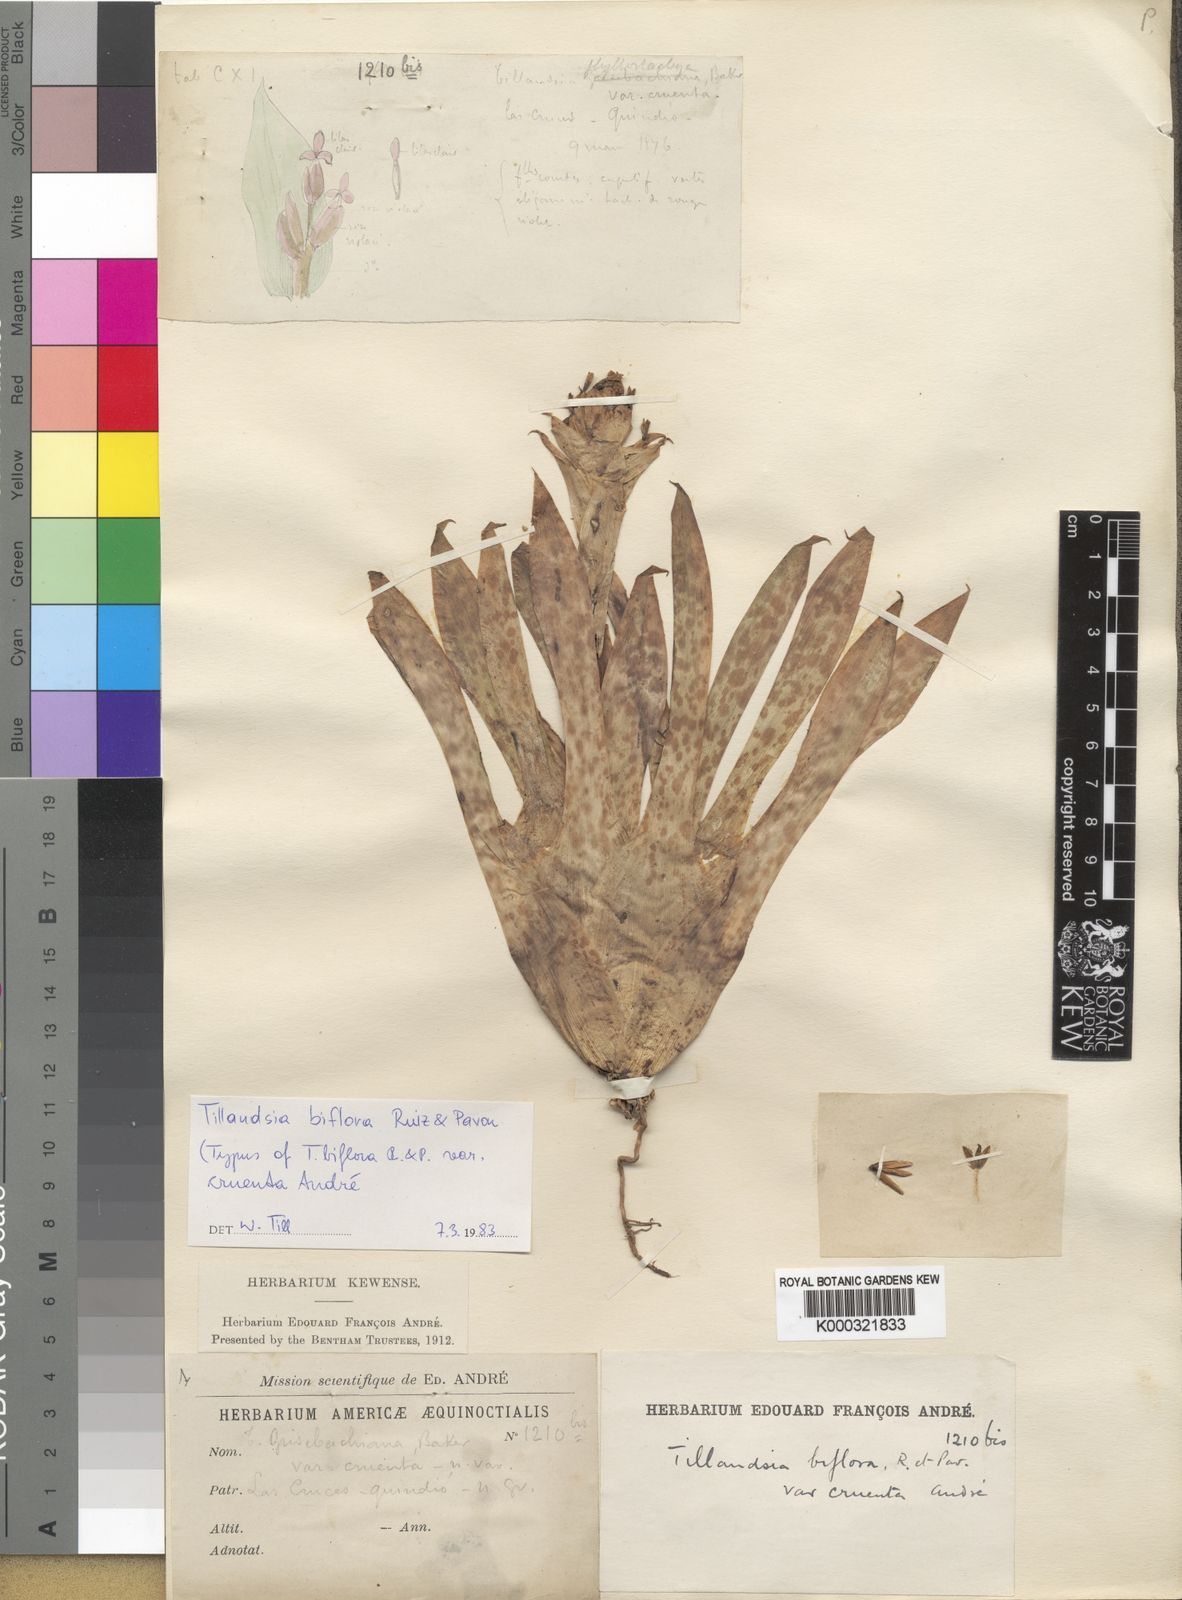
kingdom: Plantae
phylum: Tracheophyta
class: Liliopsida
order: Poales
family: Bromeliaceae
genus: Tillandsia
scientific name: Tillandsia biflora
